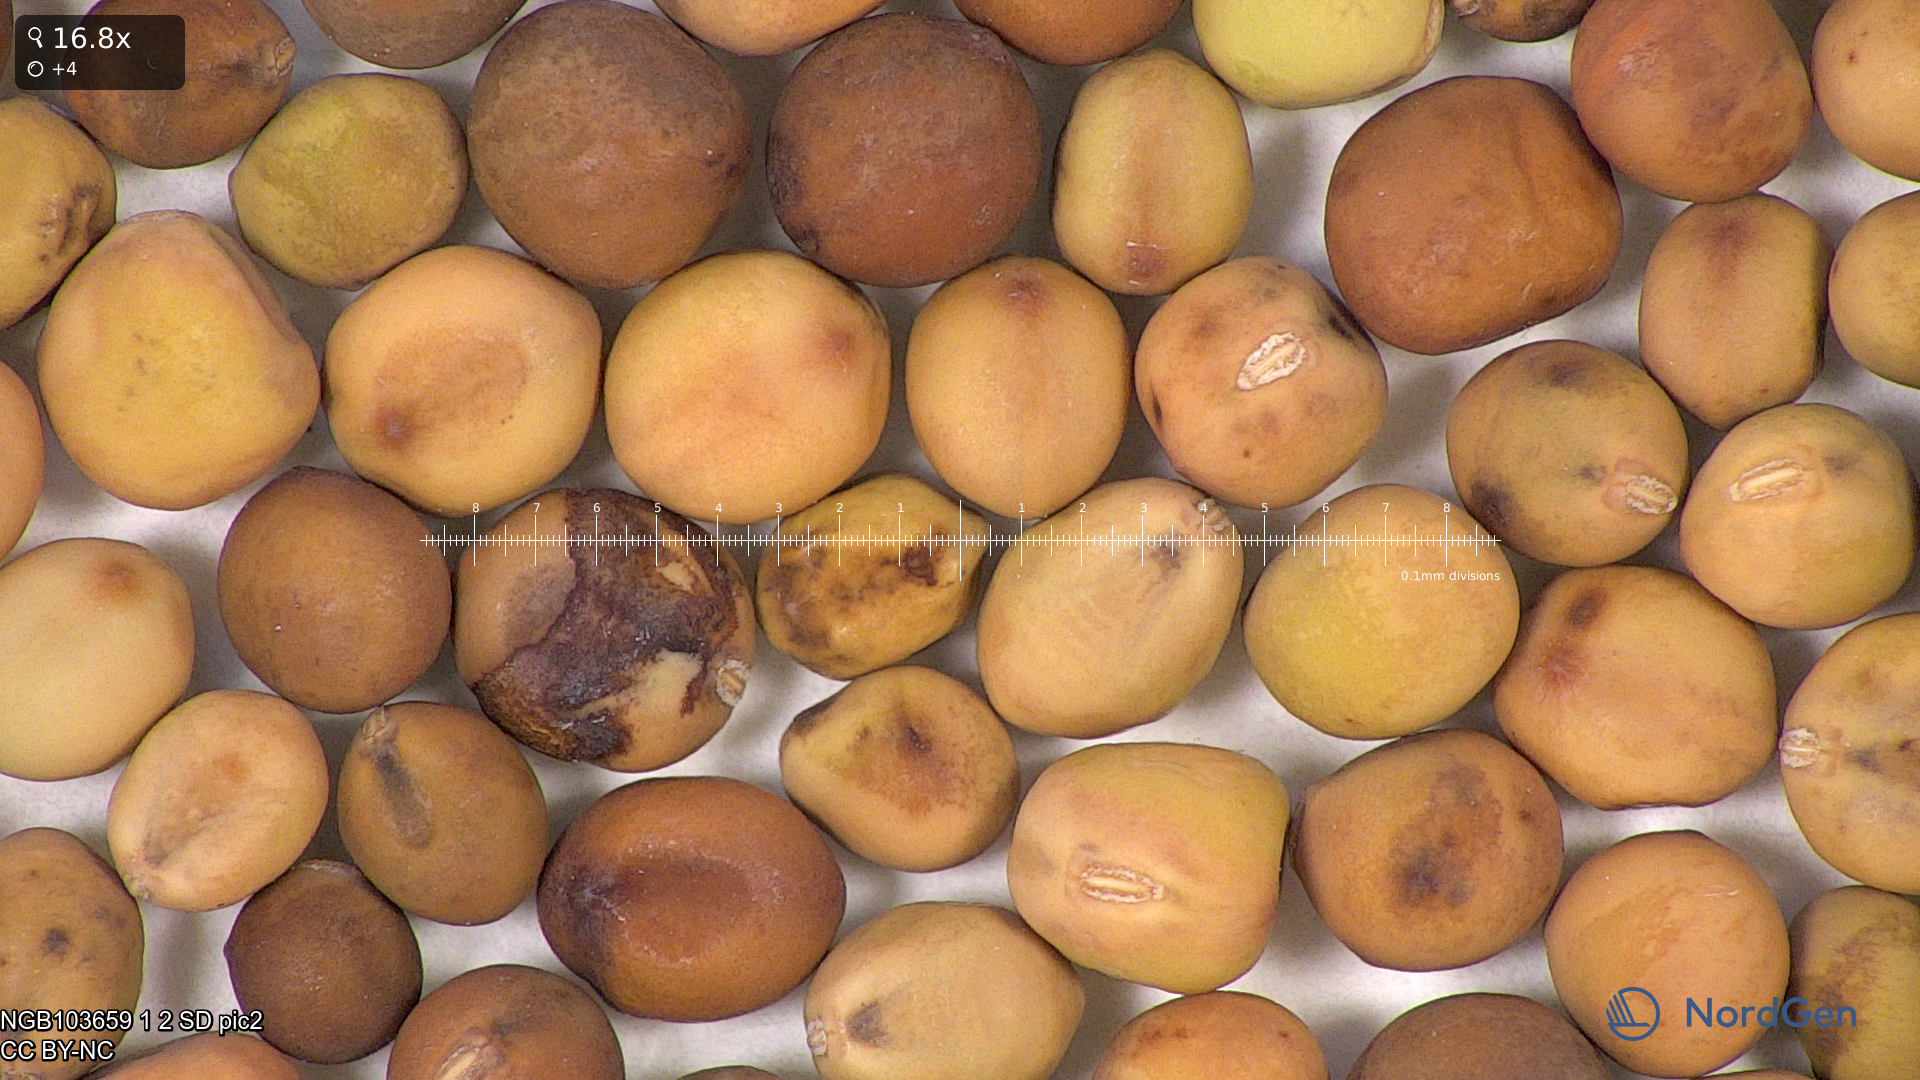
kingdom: Plantae
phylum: Tracheophyta
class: Magnoliopsida
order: Fabales
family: Fabaceae
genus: Lathyrus
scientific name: Lathyrus oleraceus
